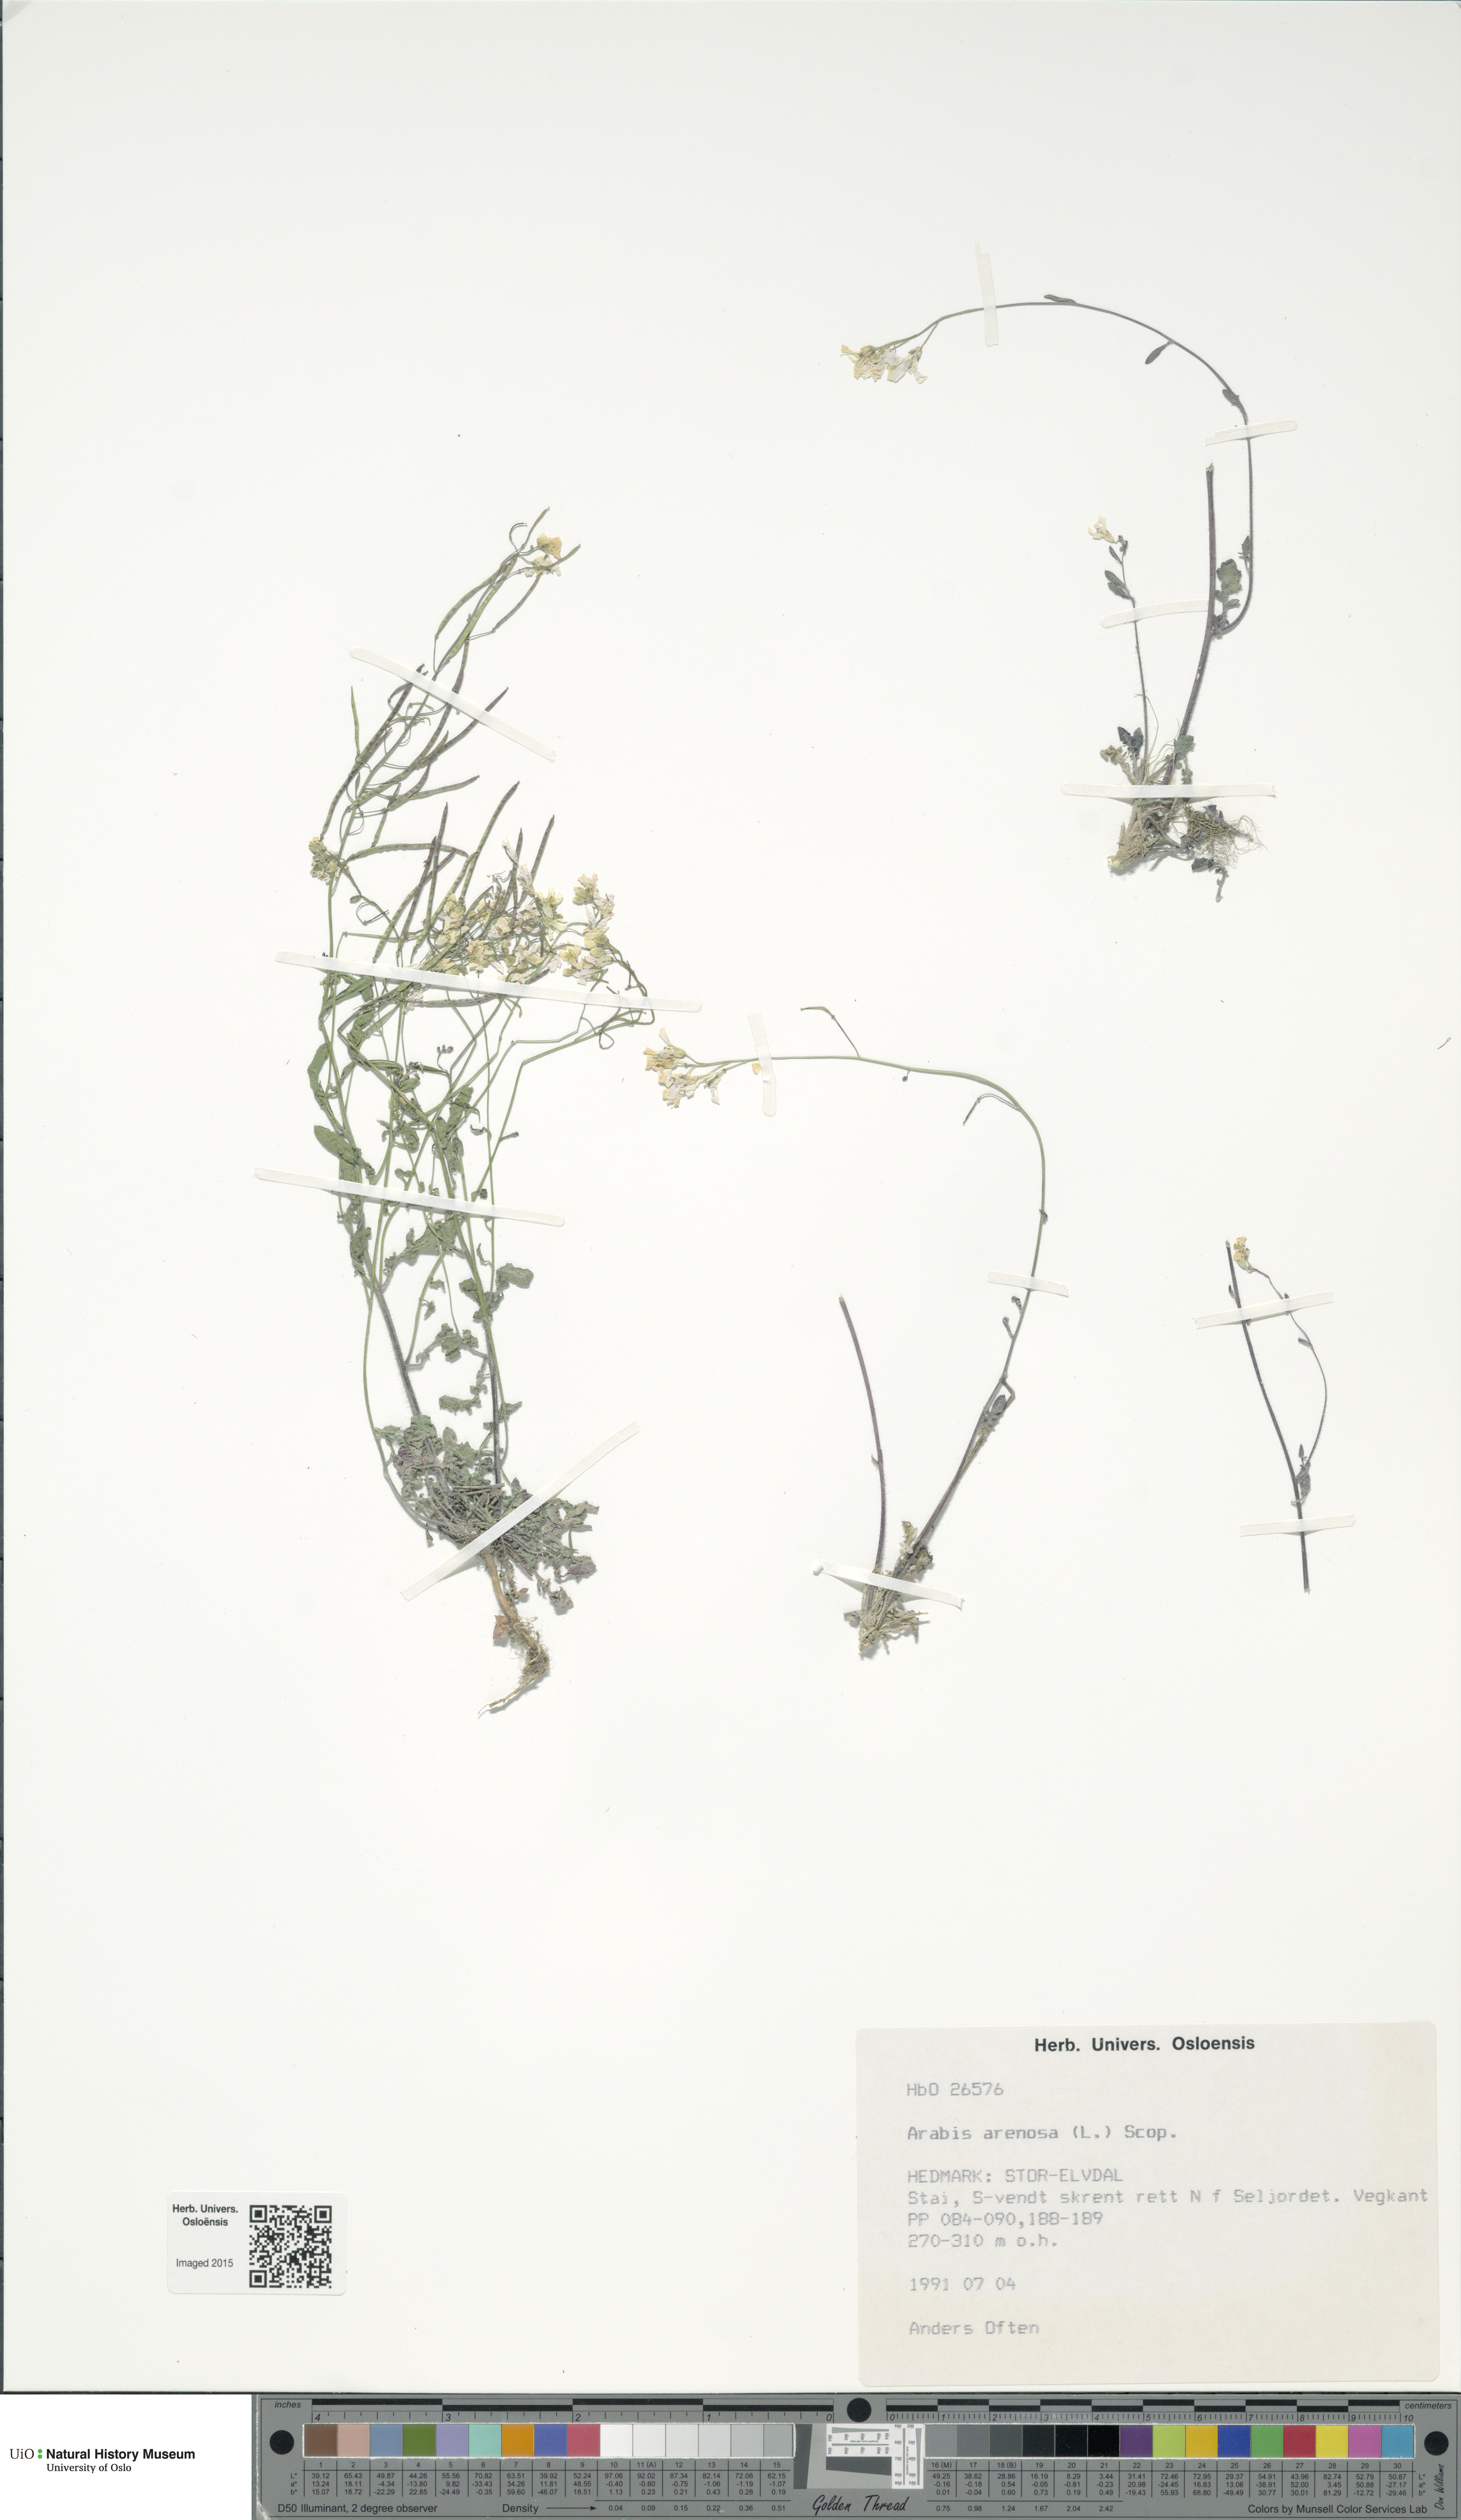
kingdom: Plantae
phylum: Tracheophyta
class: Magnoliopsida
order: Brassicales
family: Brassicaceae
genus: Arabidopsis
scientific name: Arabidopsis arenosa
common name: Sand rock-cress
